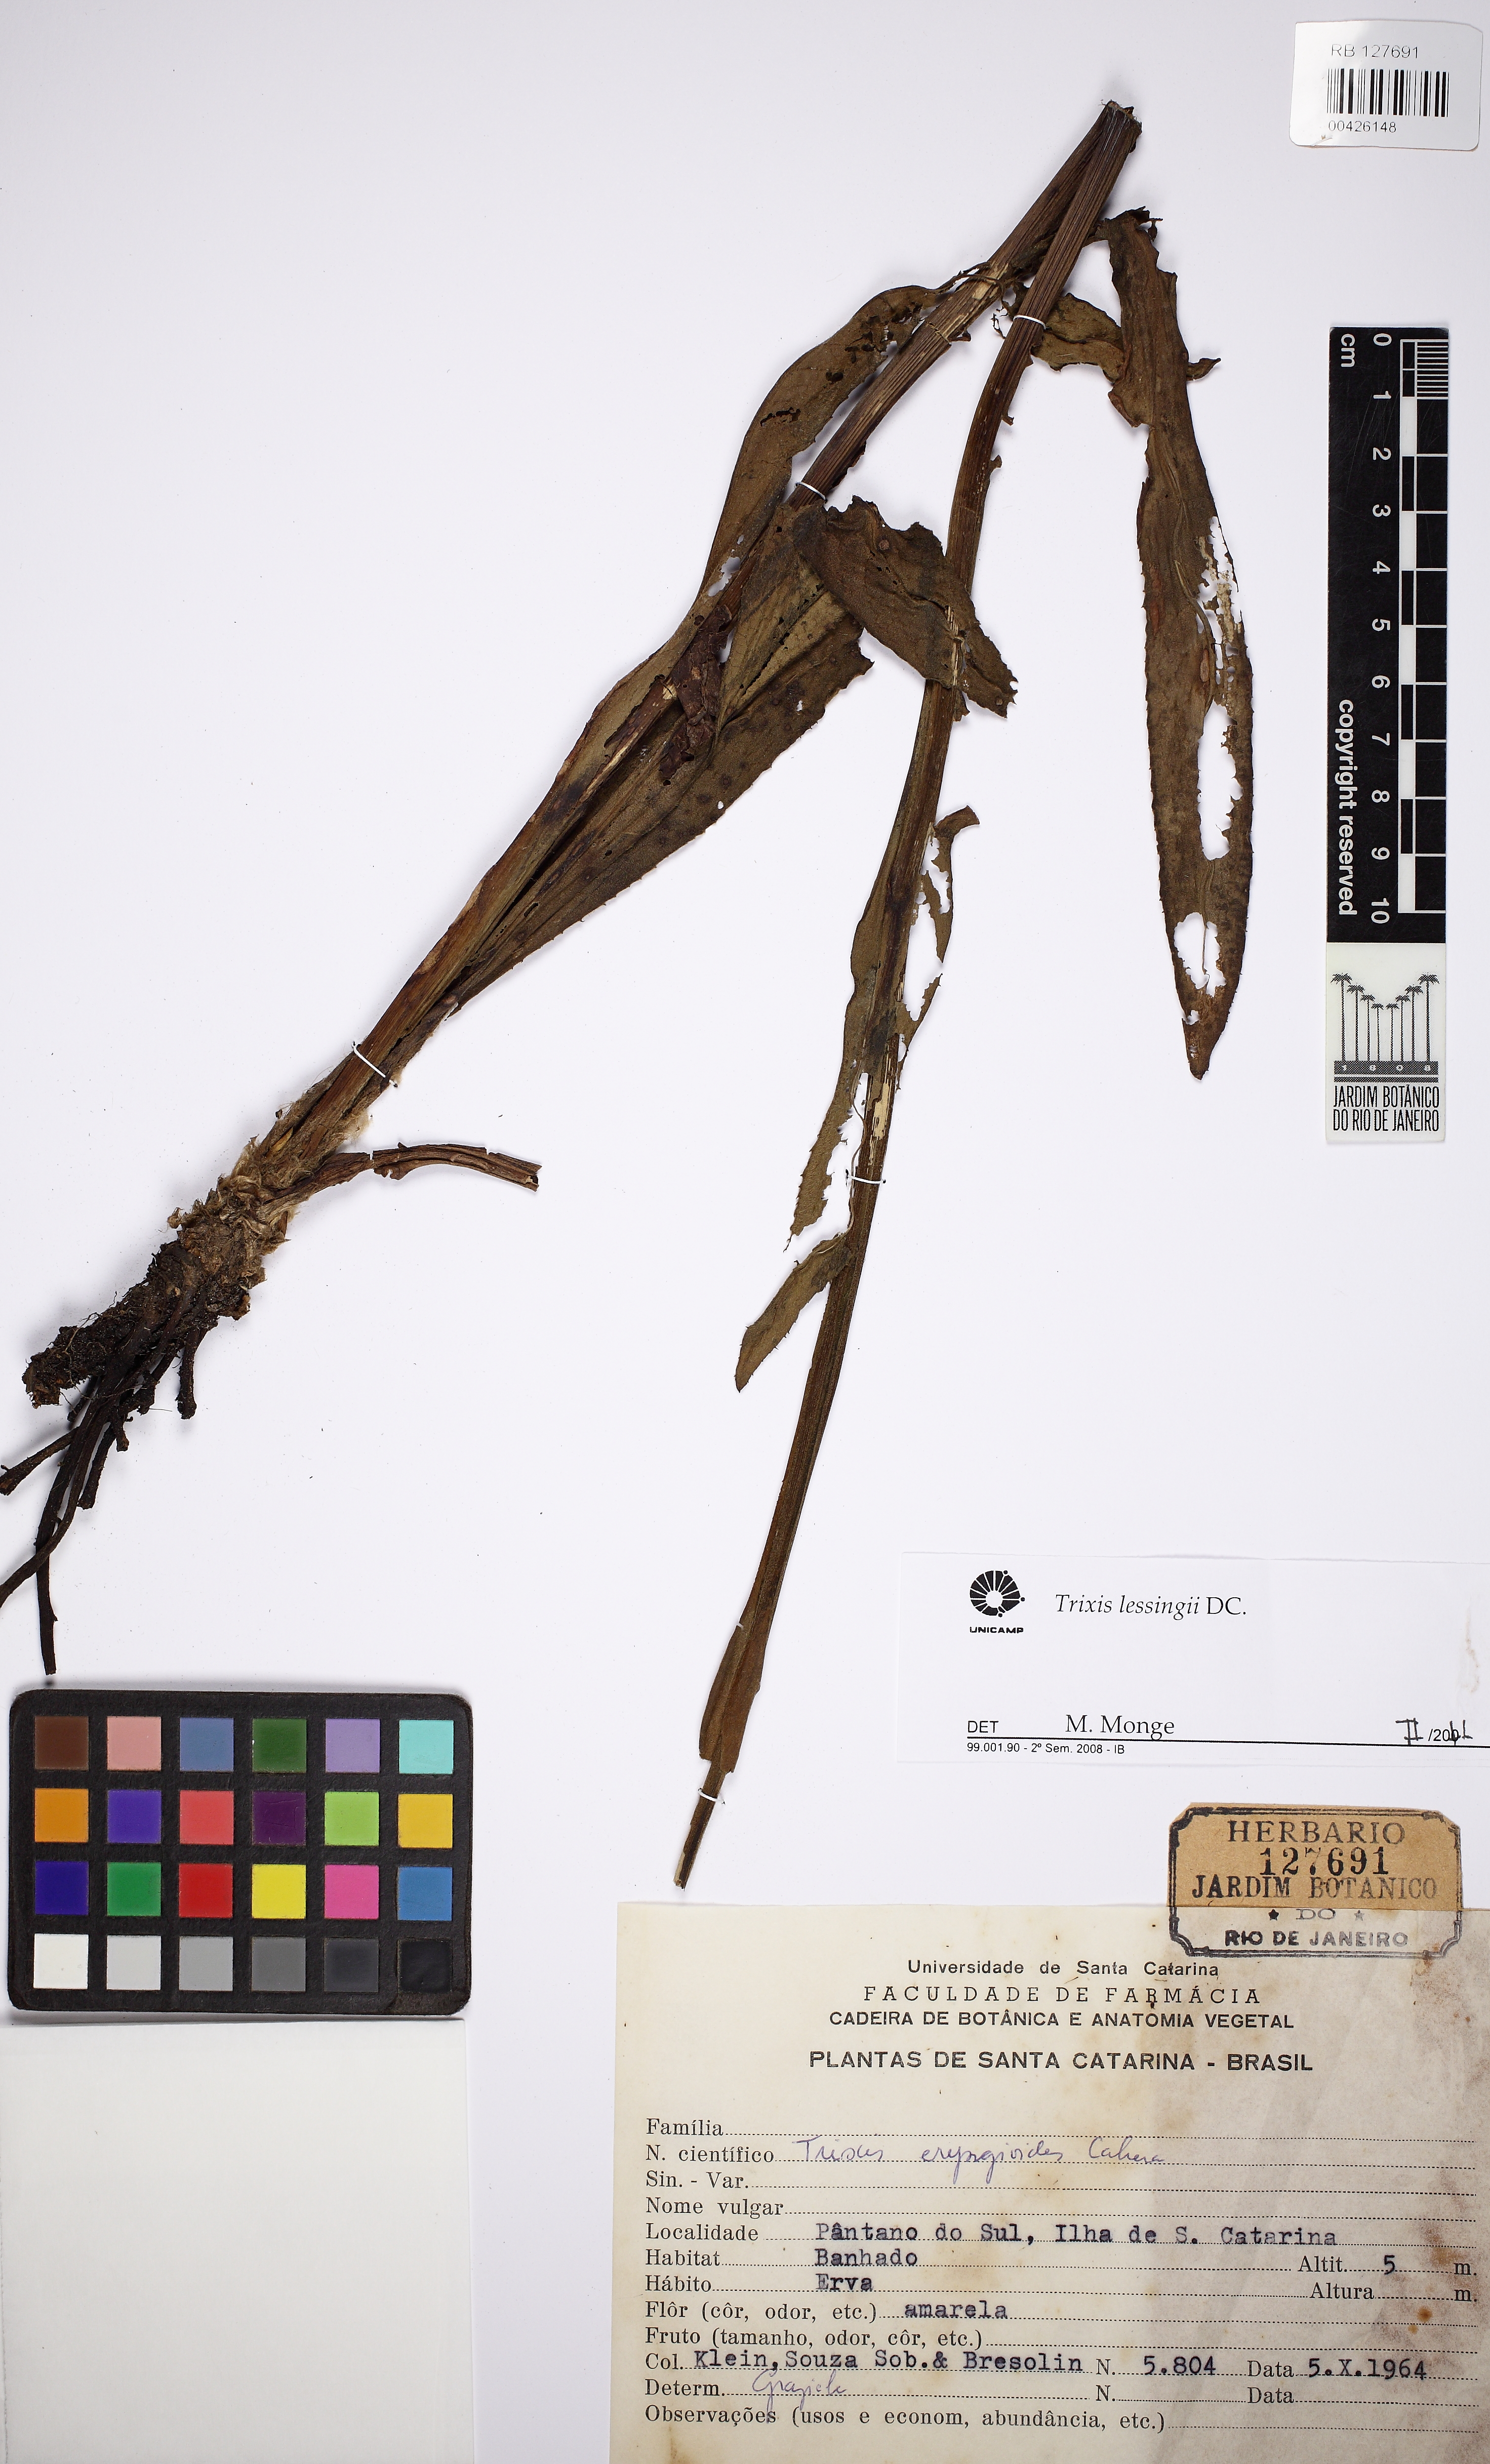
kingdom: Plantae
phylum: Tracheophyta
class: Magnoliopsida
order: Asterales
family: Asteraceae
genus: Trixis
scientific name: Trixis lessingii
